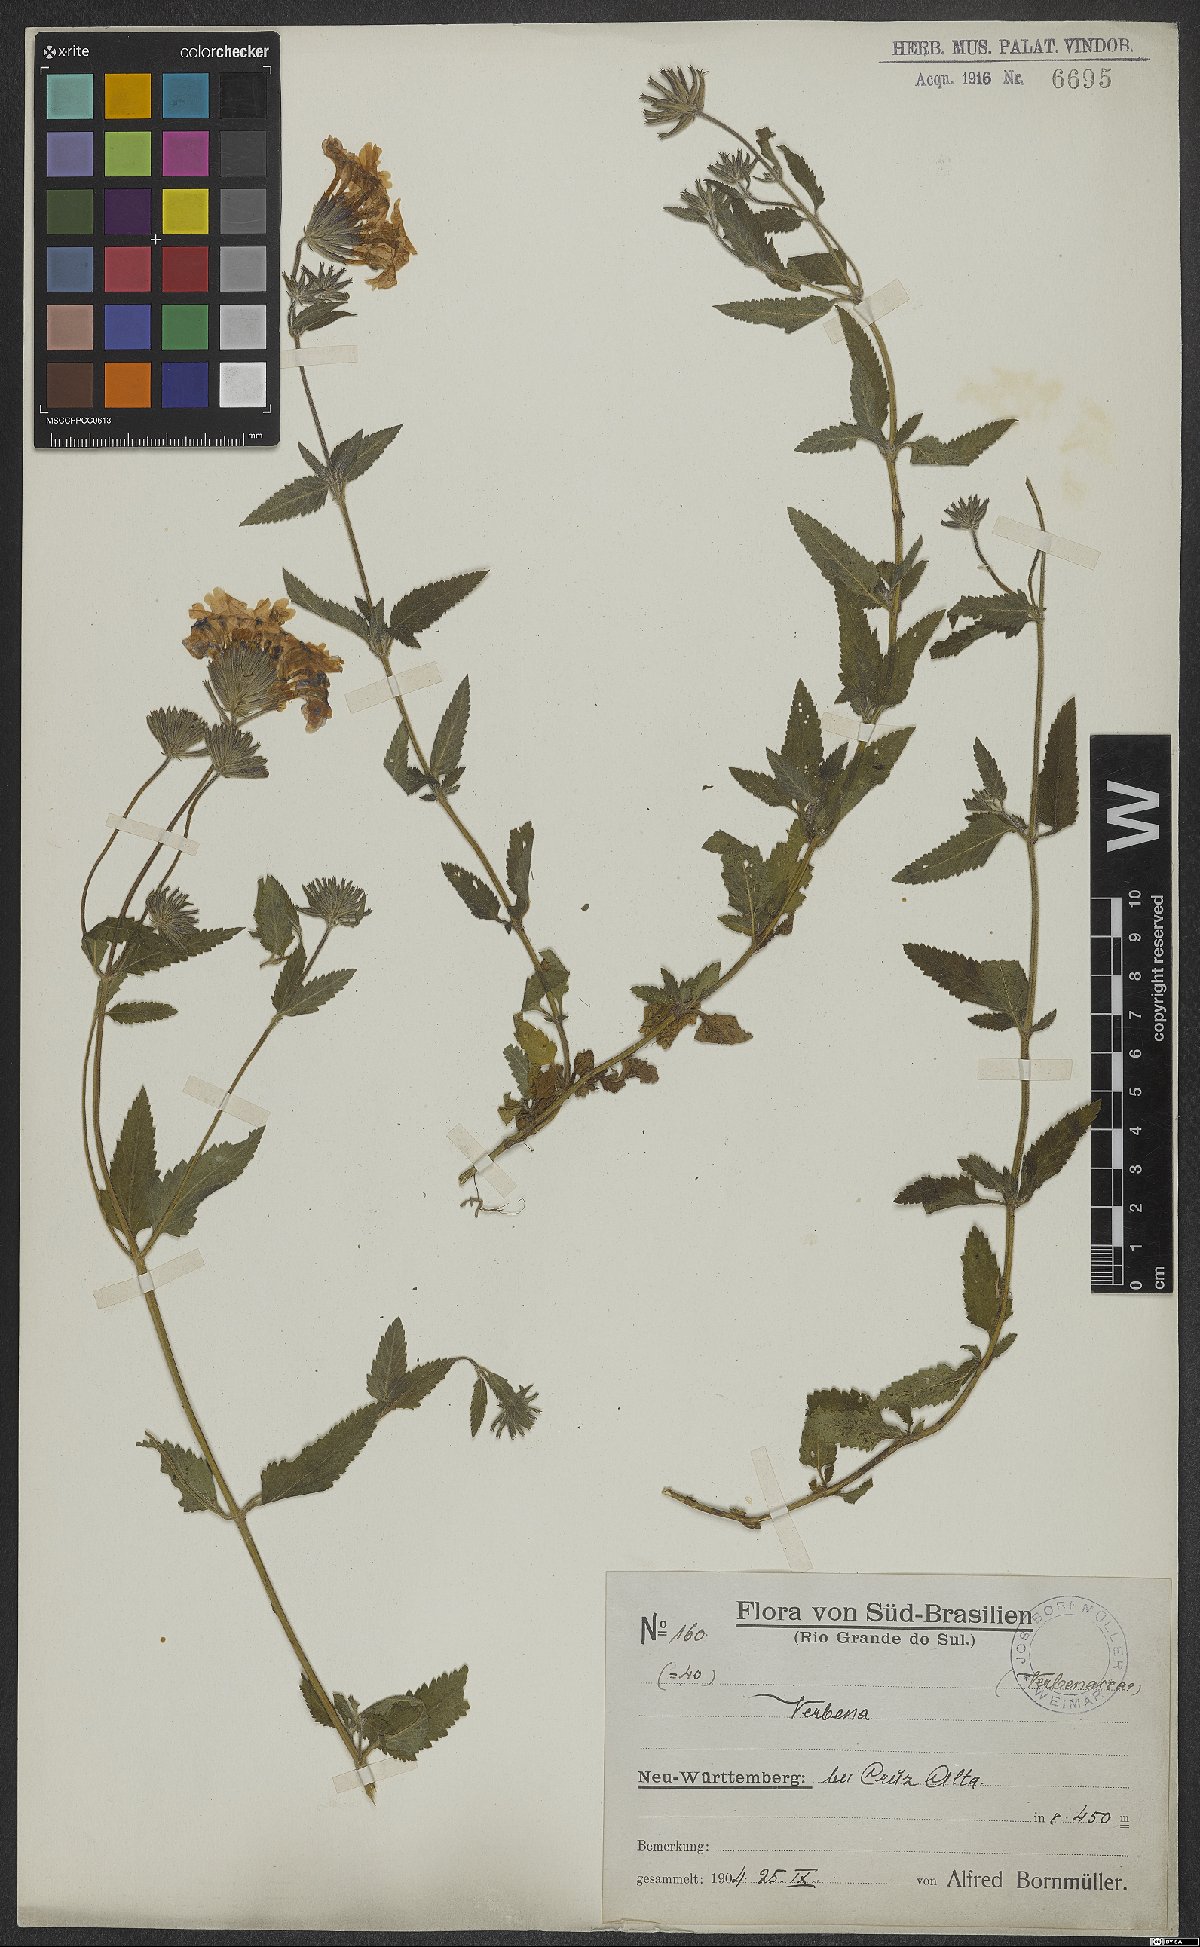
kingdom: Plantae
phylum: Tracheophyta
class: Magnoliopsida
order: Lamiales
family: Verbenaceae
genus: Verbena
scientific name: Verbena
